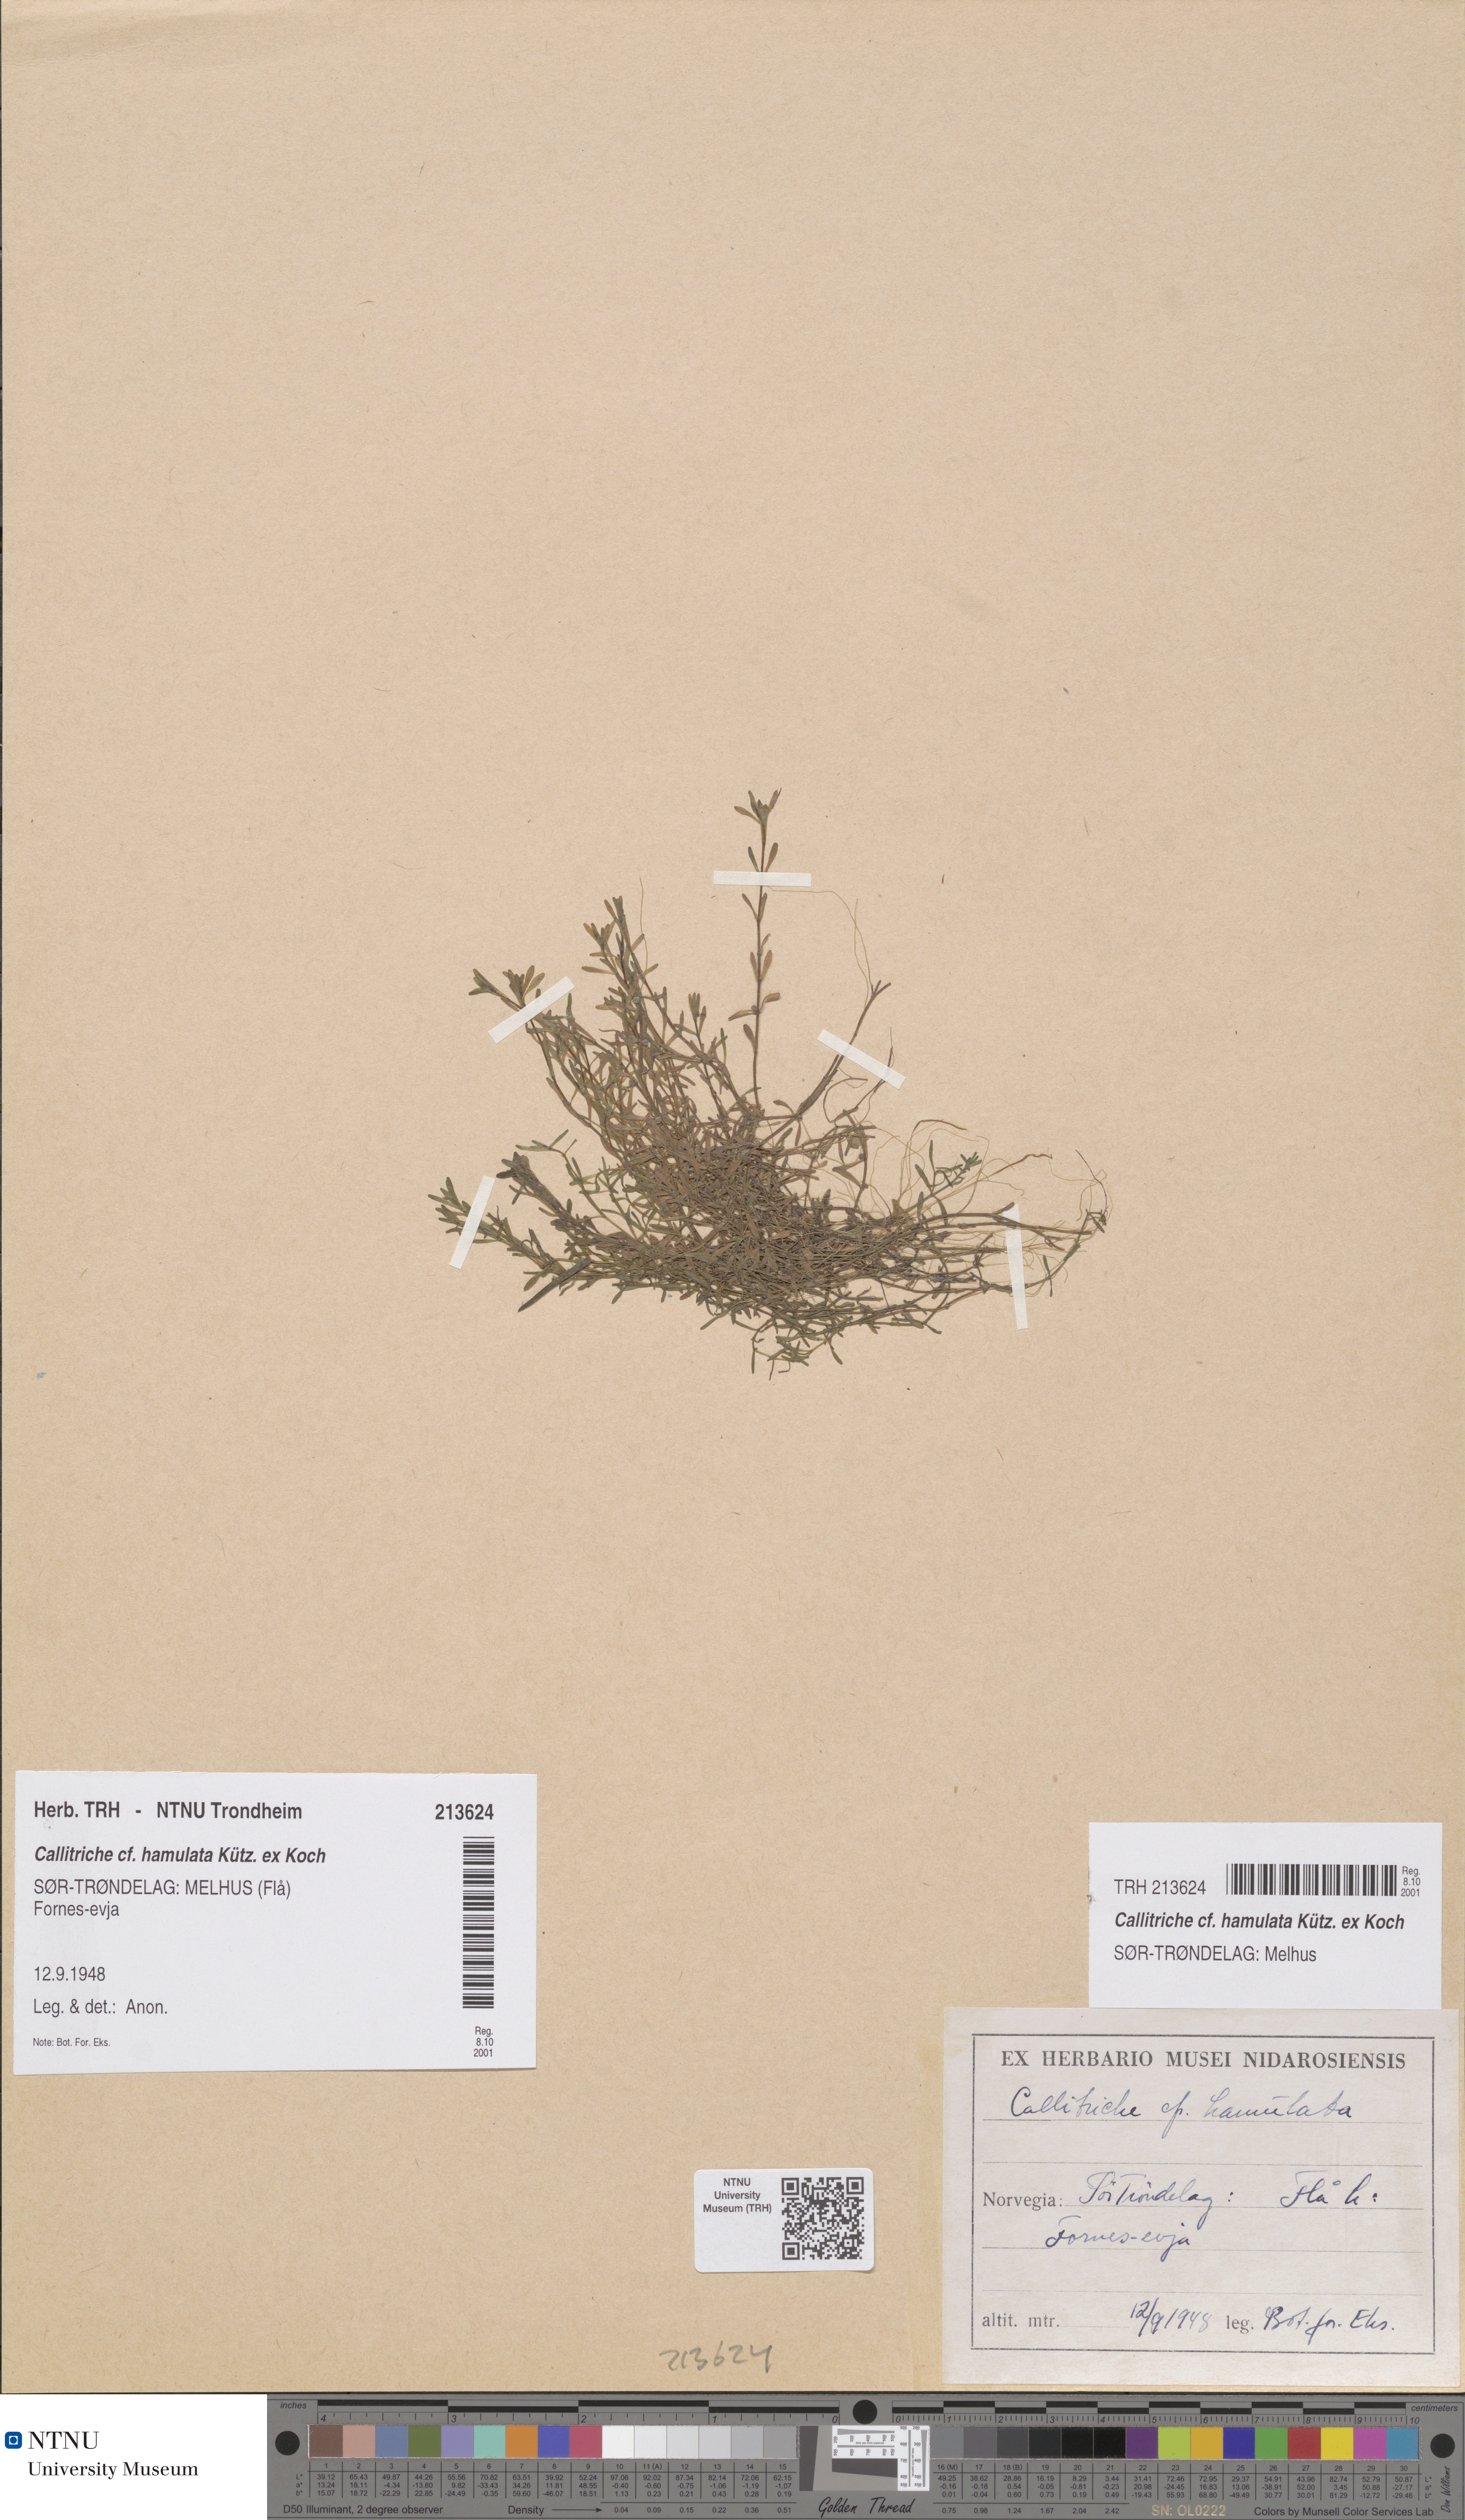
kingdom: Plantae
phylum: Tracheophyta
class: Magnoliopsida
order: Lamiales
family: Plantaginaceae
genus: Callitriche
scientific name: Callitriche hamulata
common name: Intermediate water-starwort
